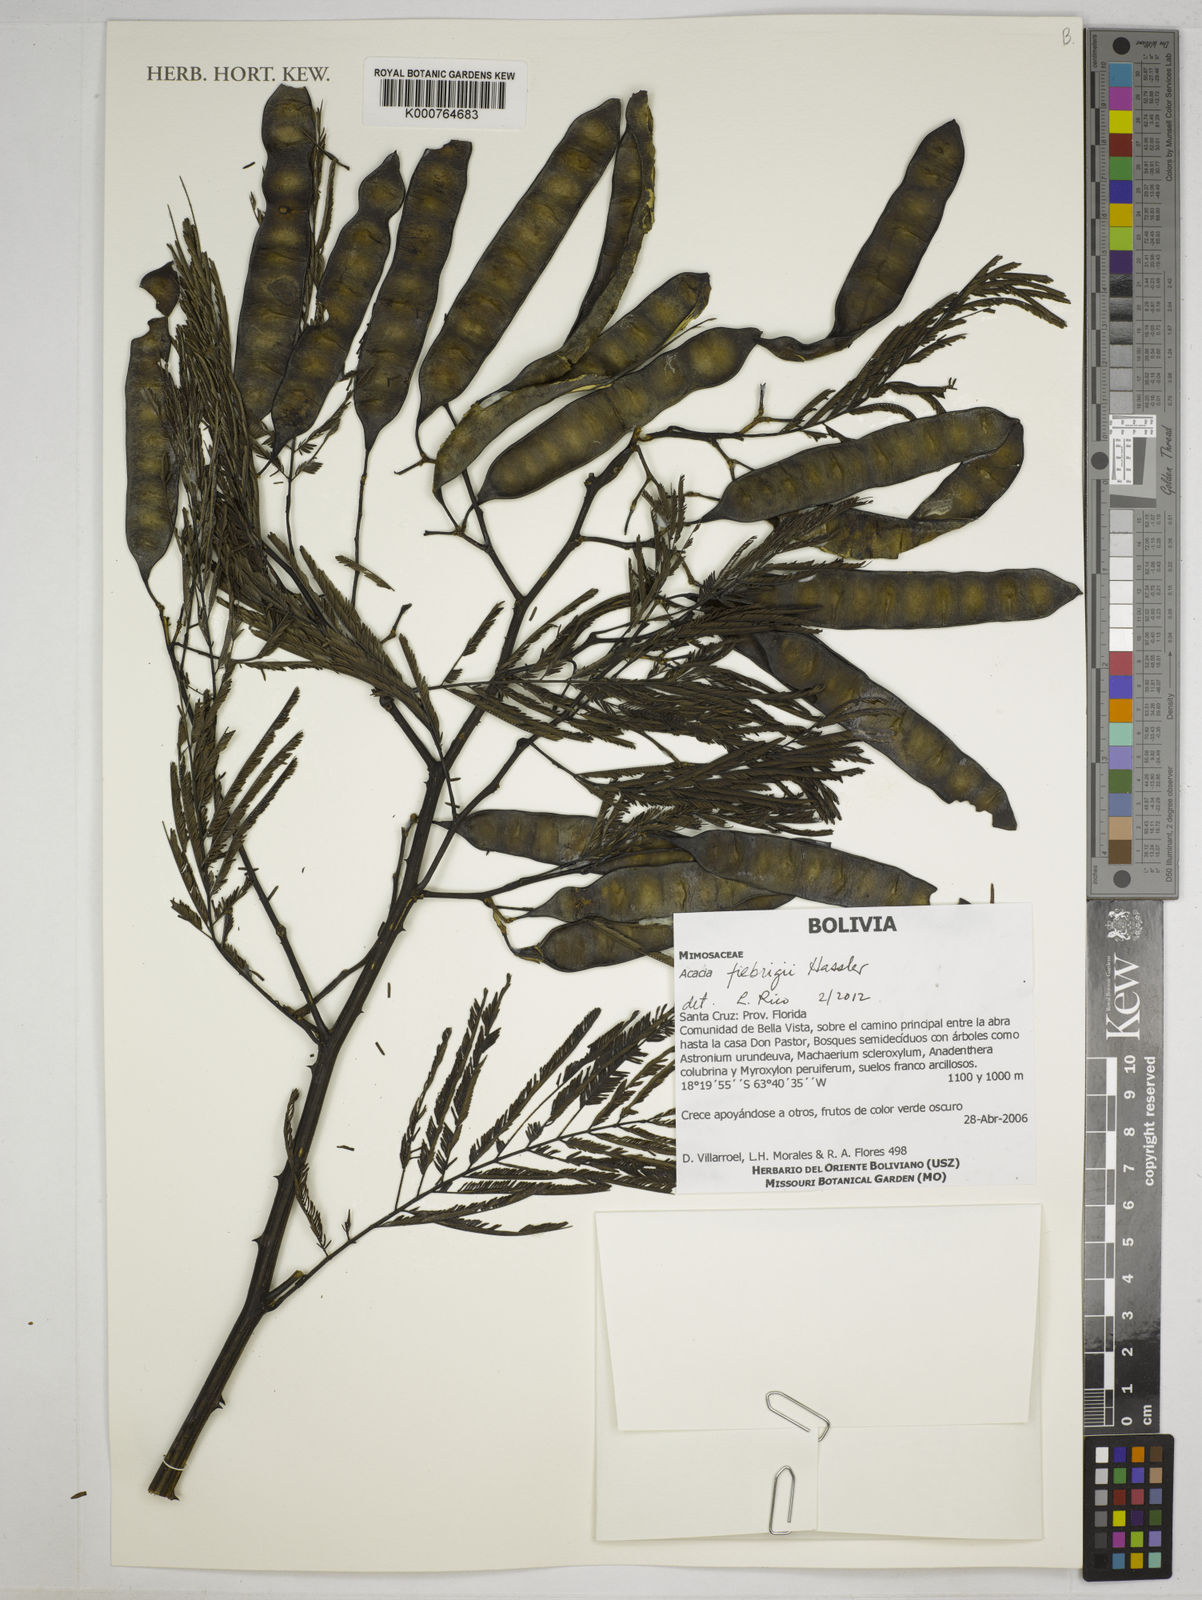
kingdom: Plantae
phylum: Tracheophyta
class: Magnoliopsida
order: Fabales
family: Fabaceae
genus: Senegalia
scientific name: Senegalia fiebrigii
